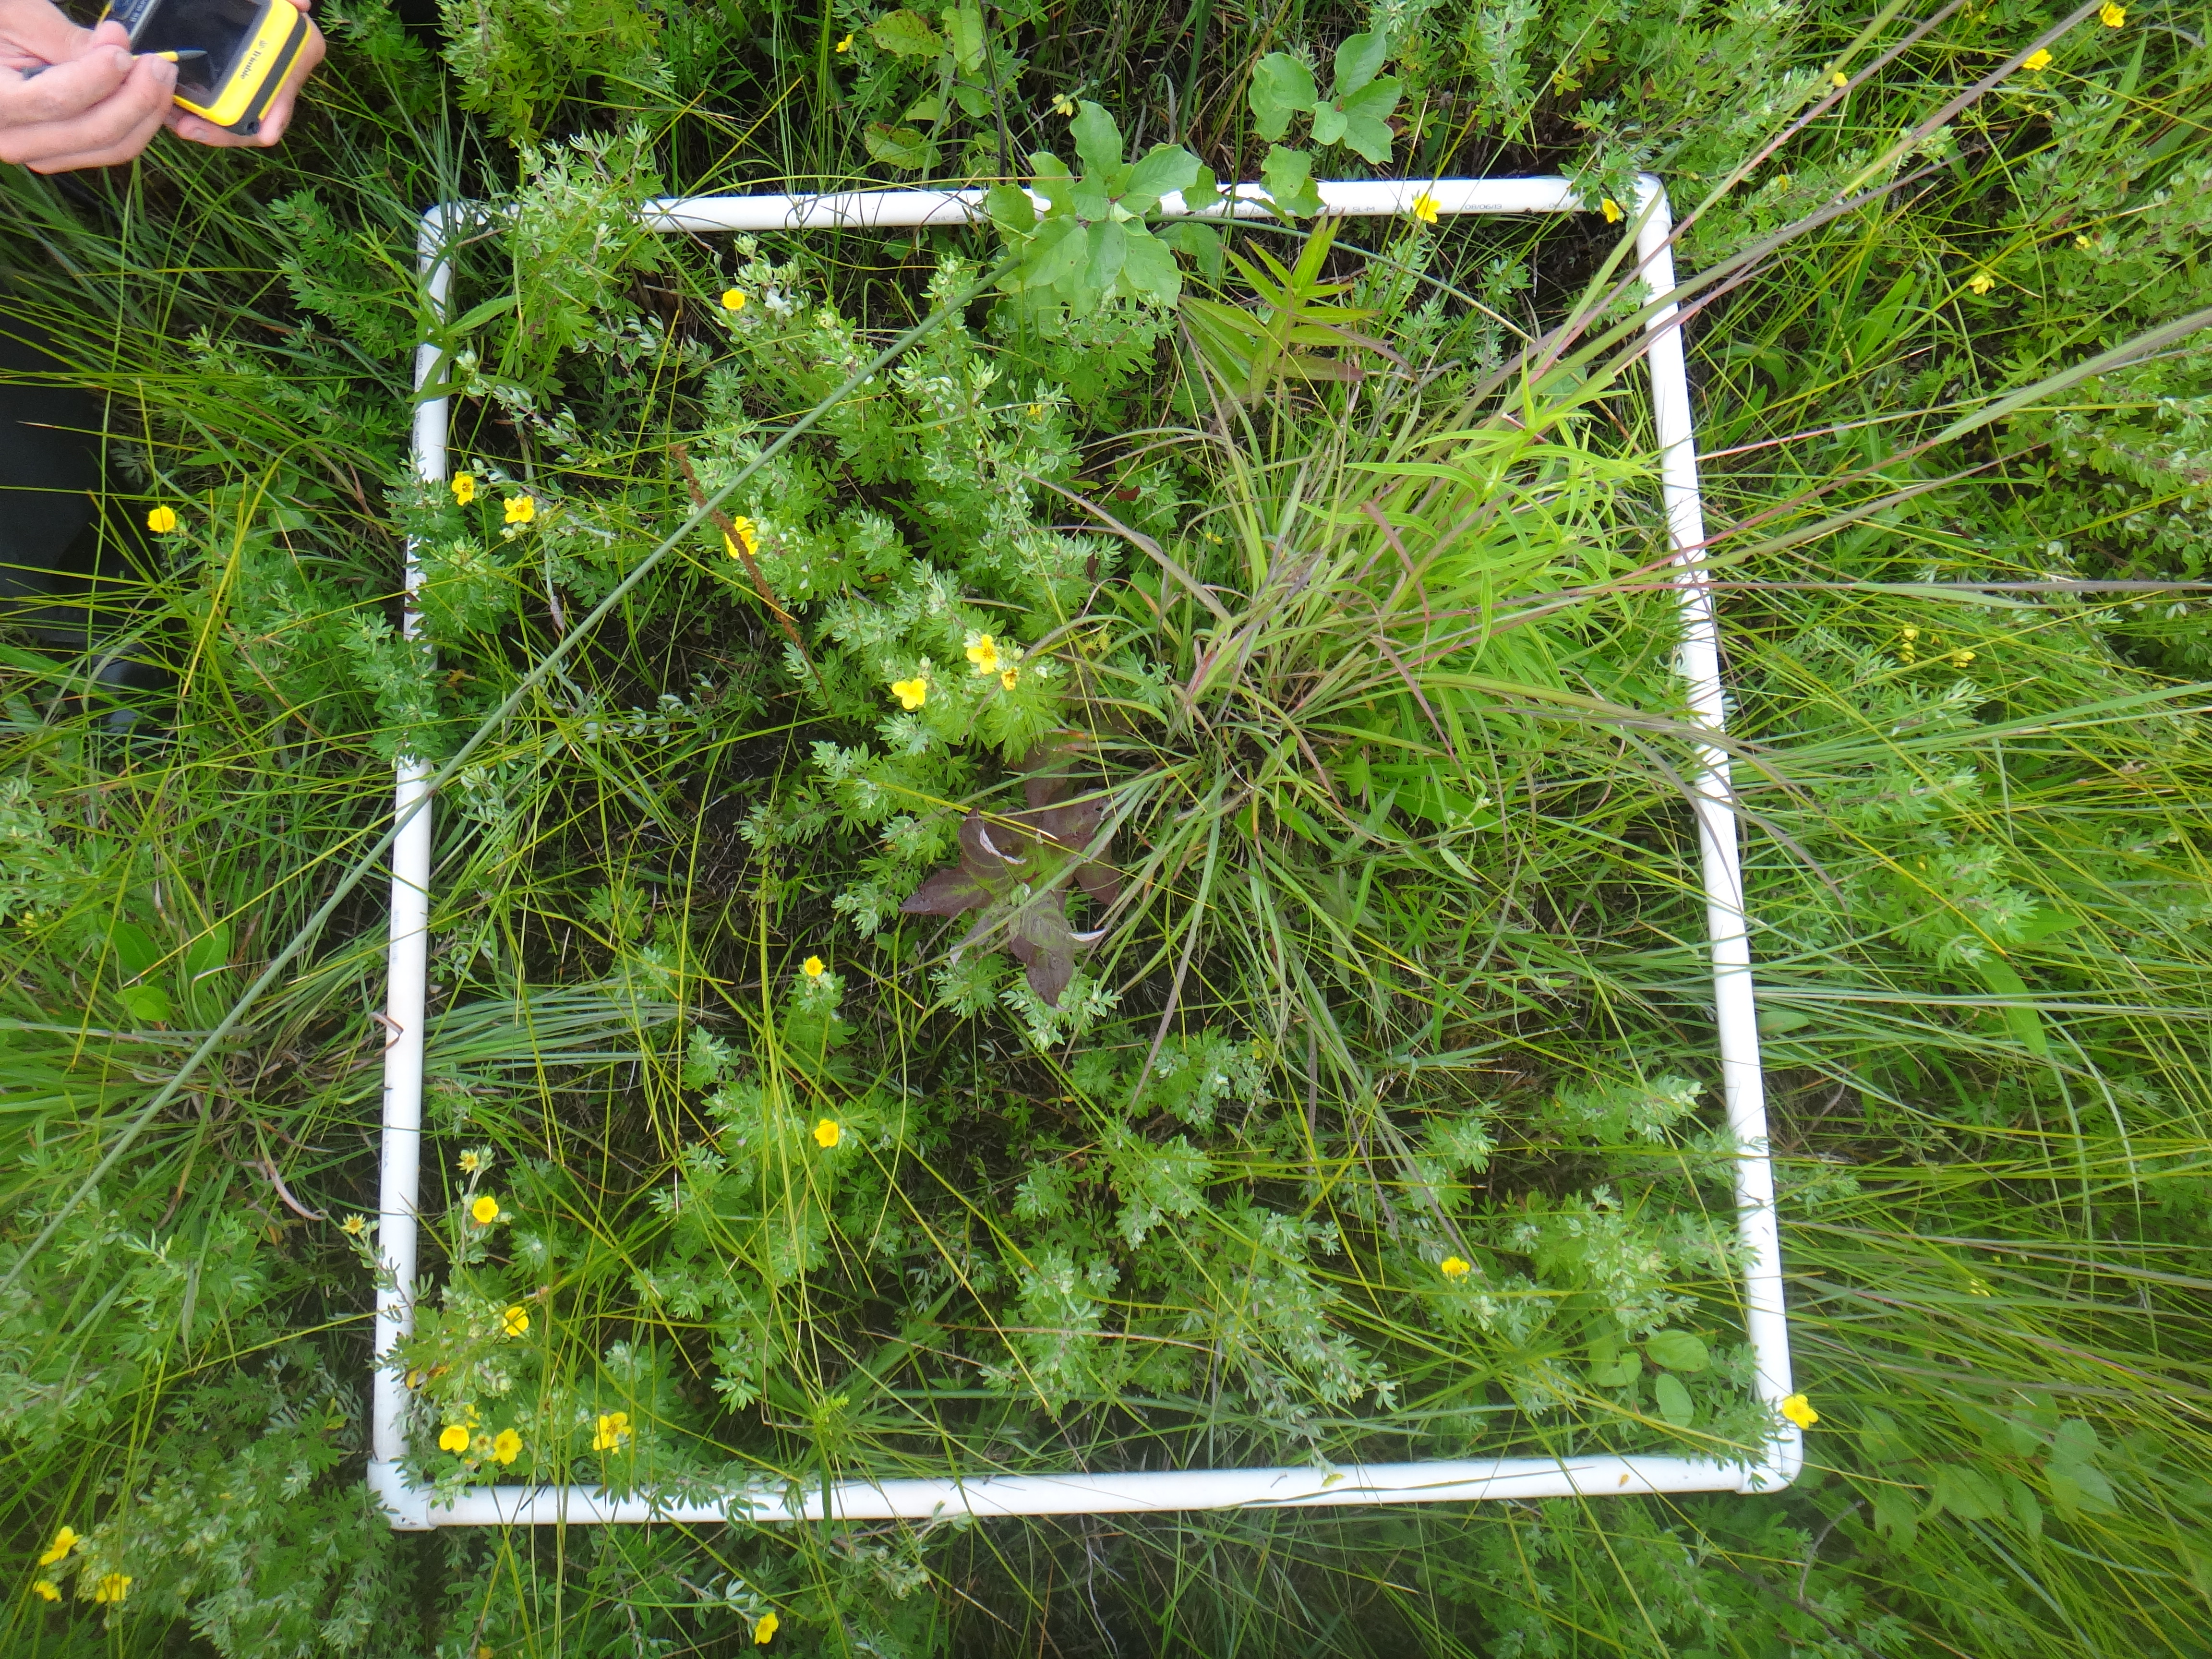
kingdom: Plantae
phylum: Tracheophyta
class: Liliopsida
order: Poales
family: Cyperaceae
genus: Carex
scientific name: Carex flava
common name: Large yellow-sedge
